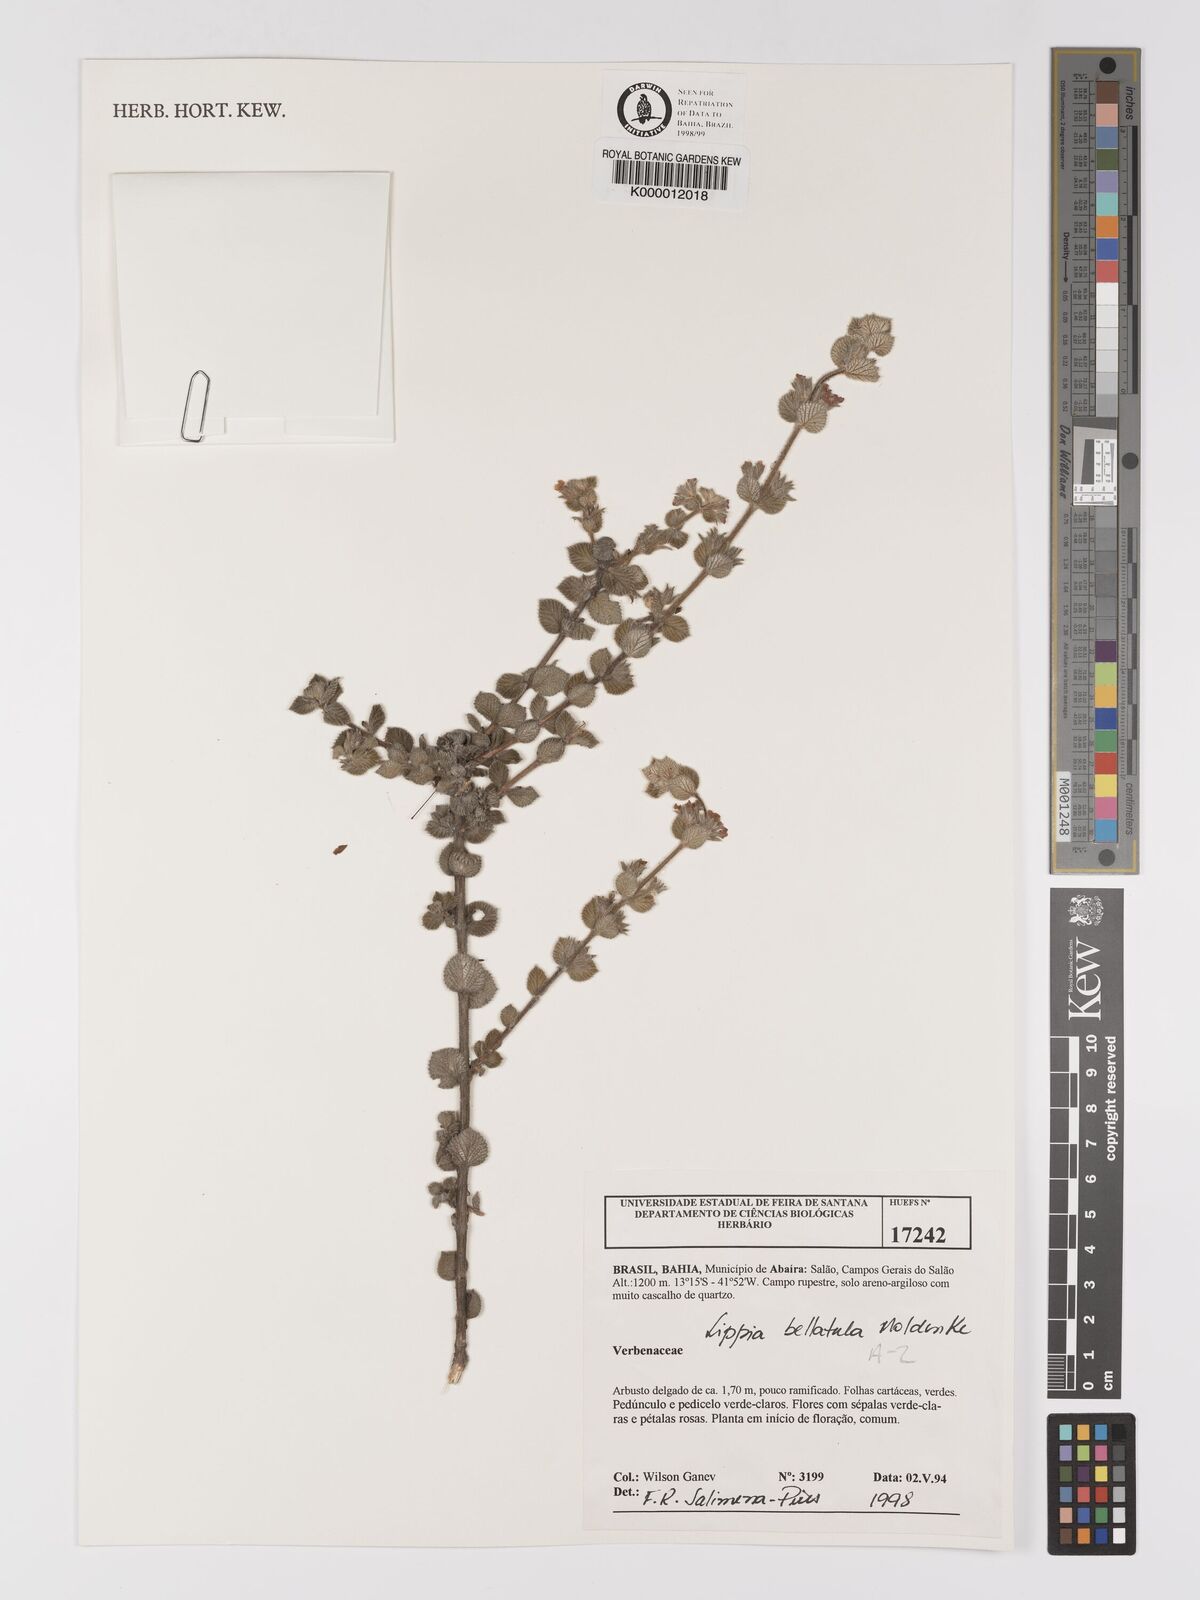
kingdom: Plantae
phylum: Tracheophyta
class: Magnoliopsida
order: Lamiales
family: Verbenaceae
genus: Lippia
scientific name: Lippia bellatula
